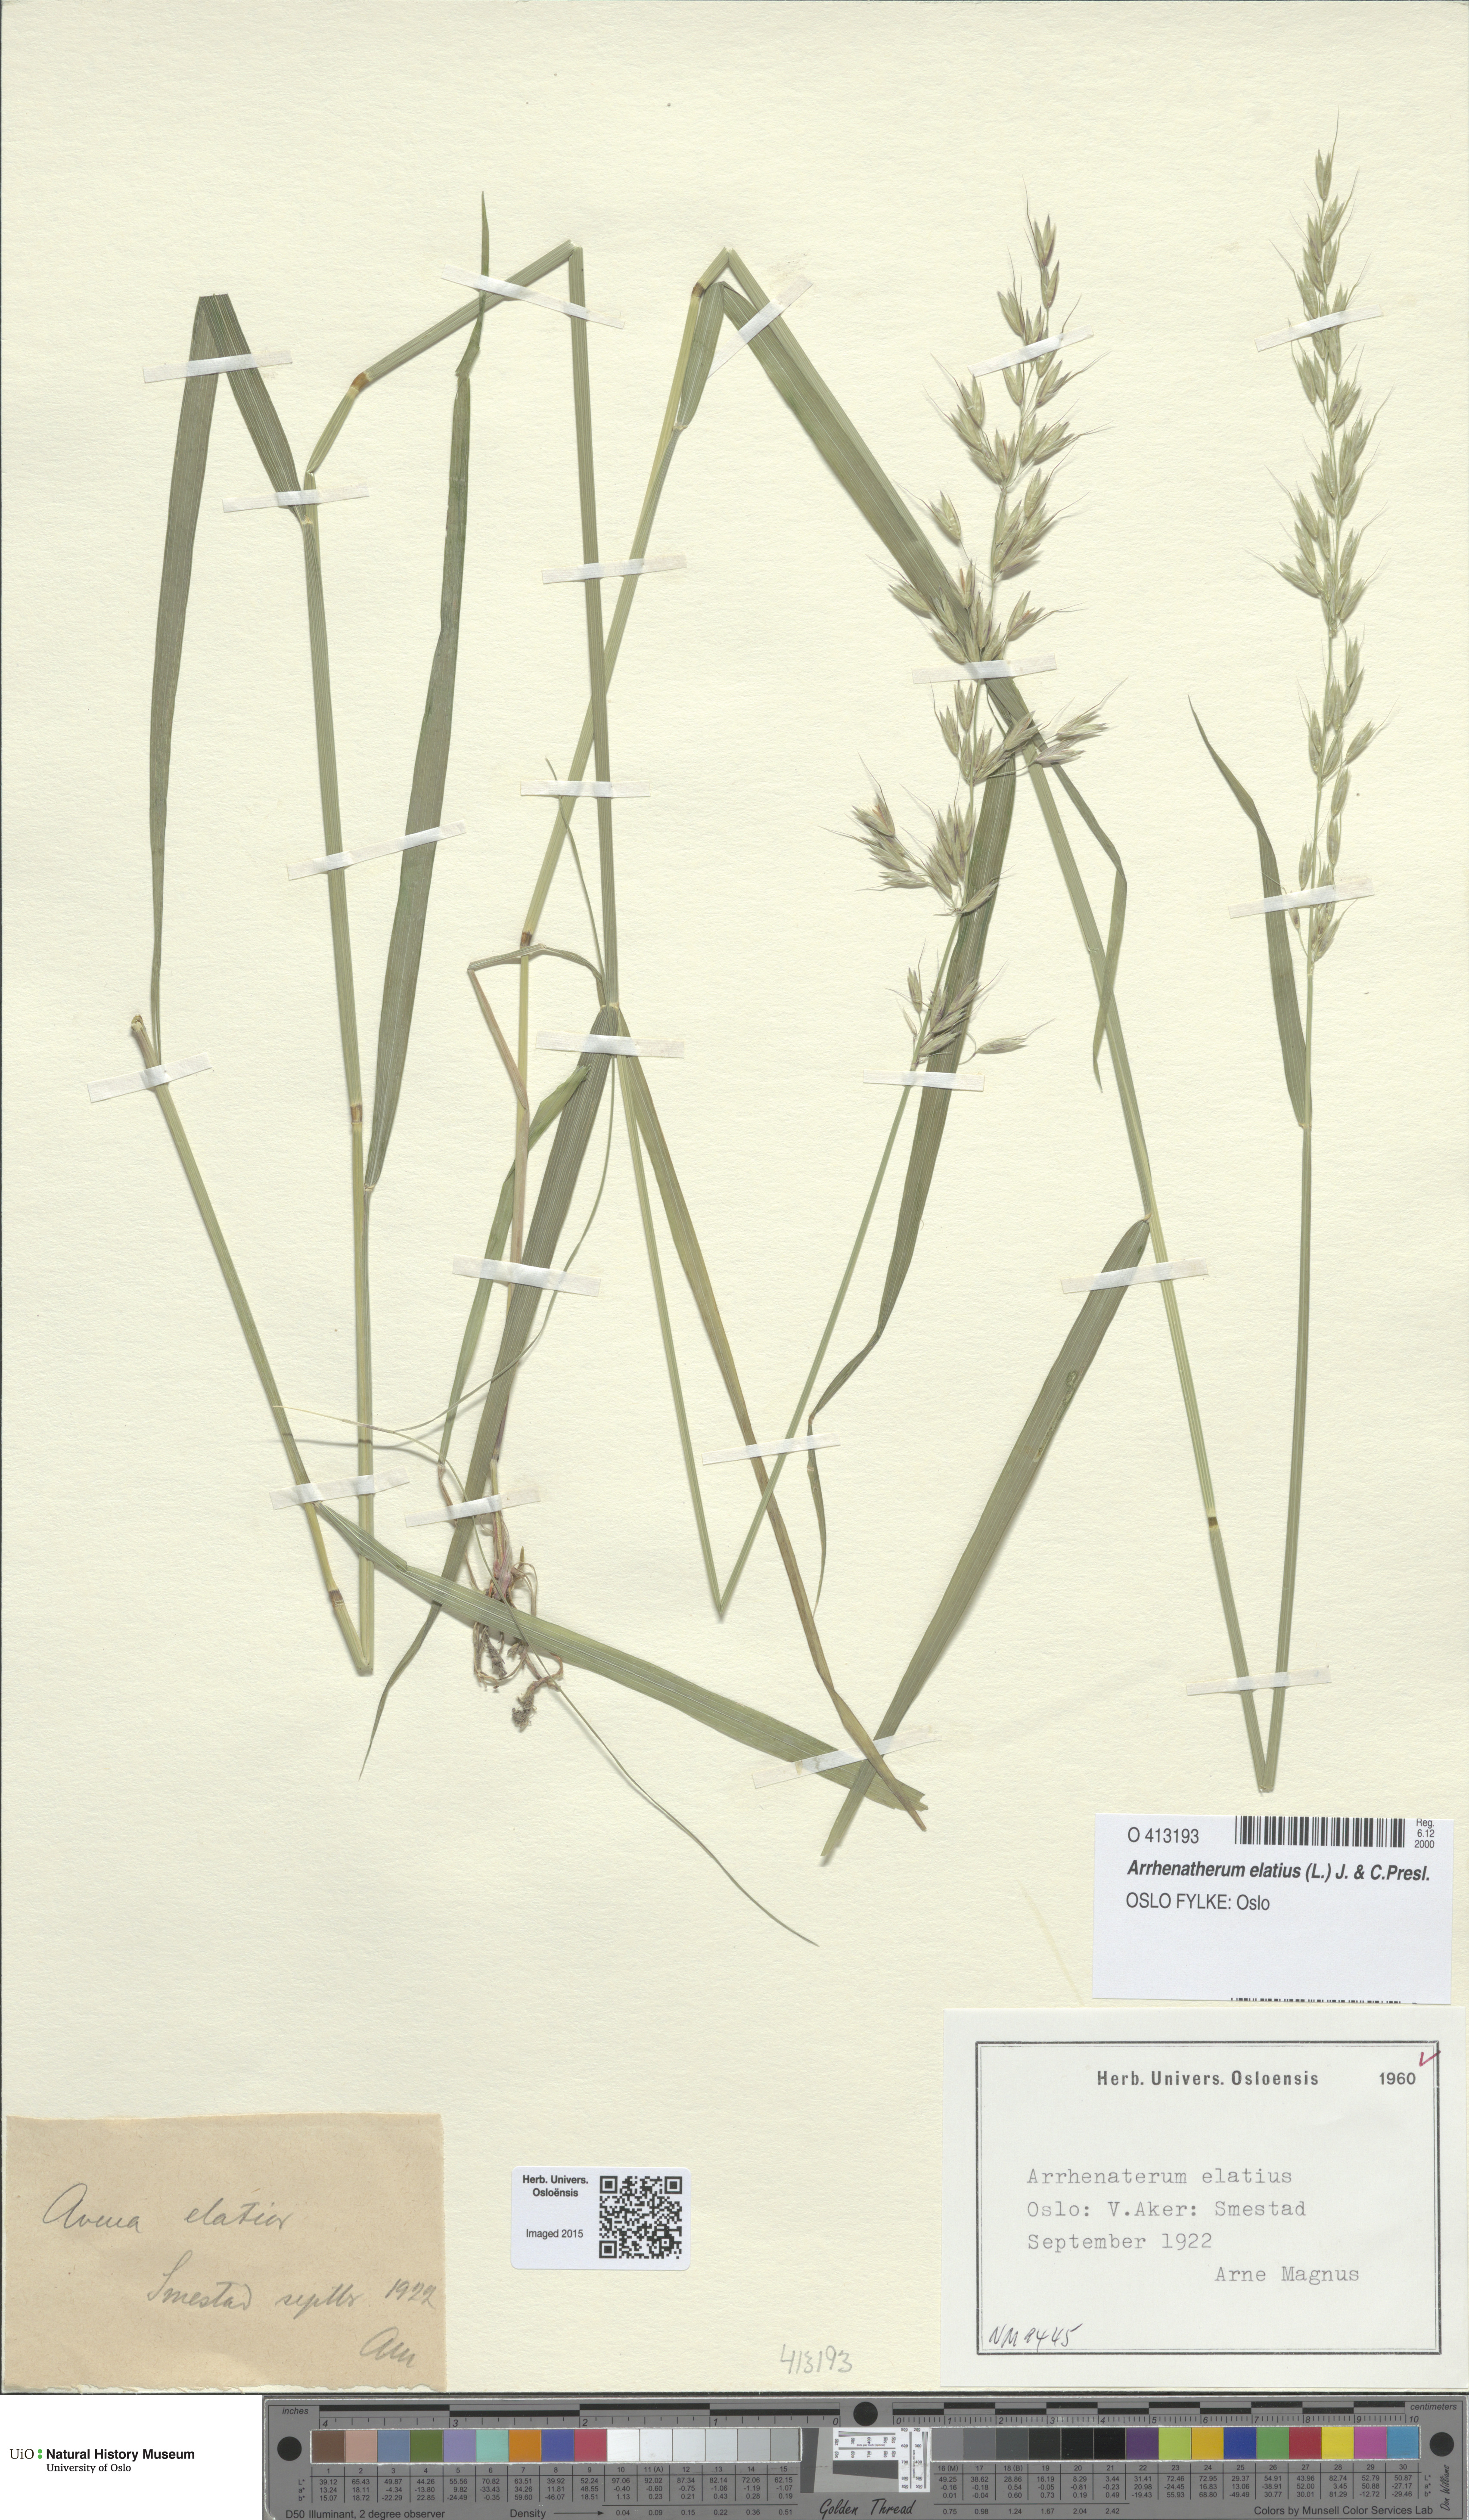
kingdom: Plantae
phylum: Tracheophyta
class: Liliopsida
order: Poales
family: Poaceae
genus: Arrhenatherum
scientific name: Arrhenatherum elatius
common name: Tall oatgrass
